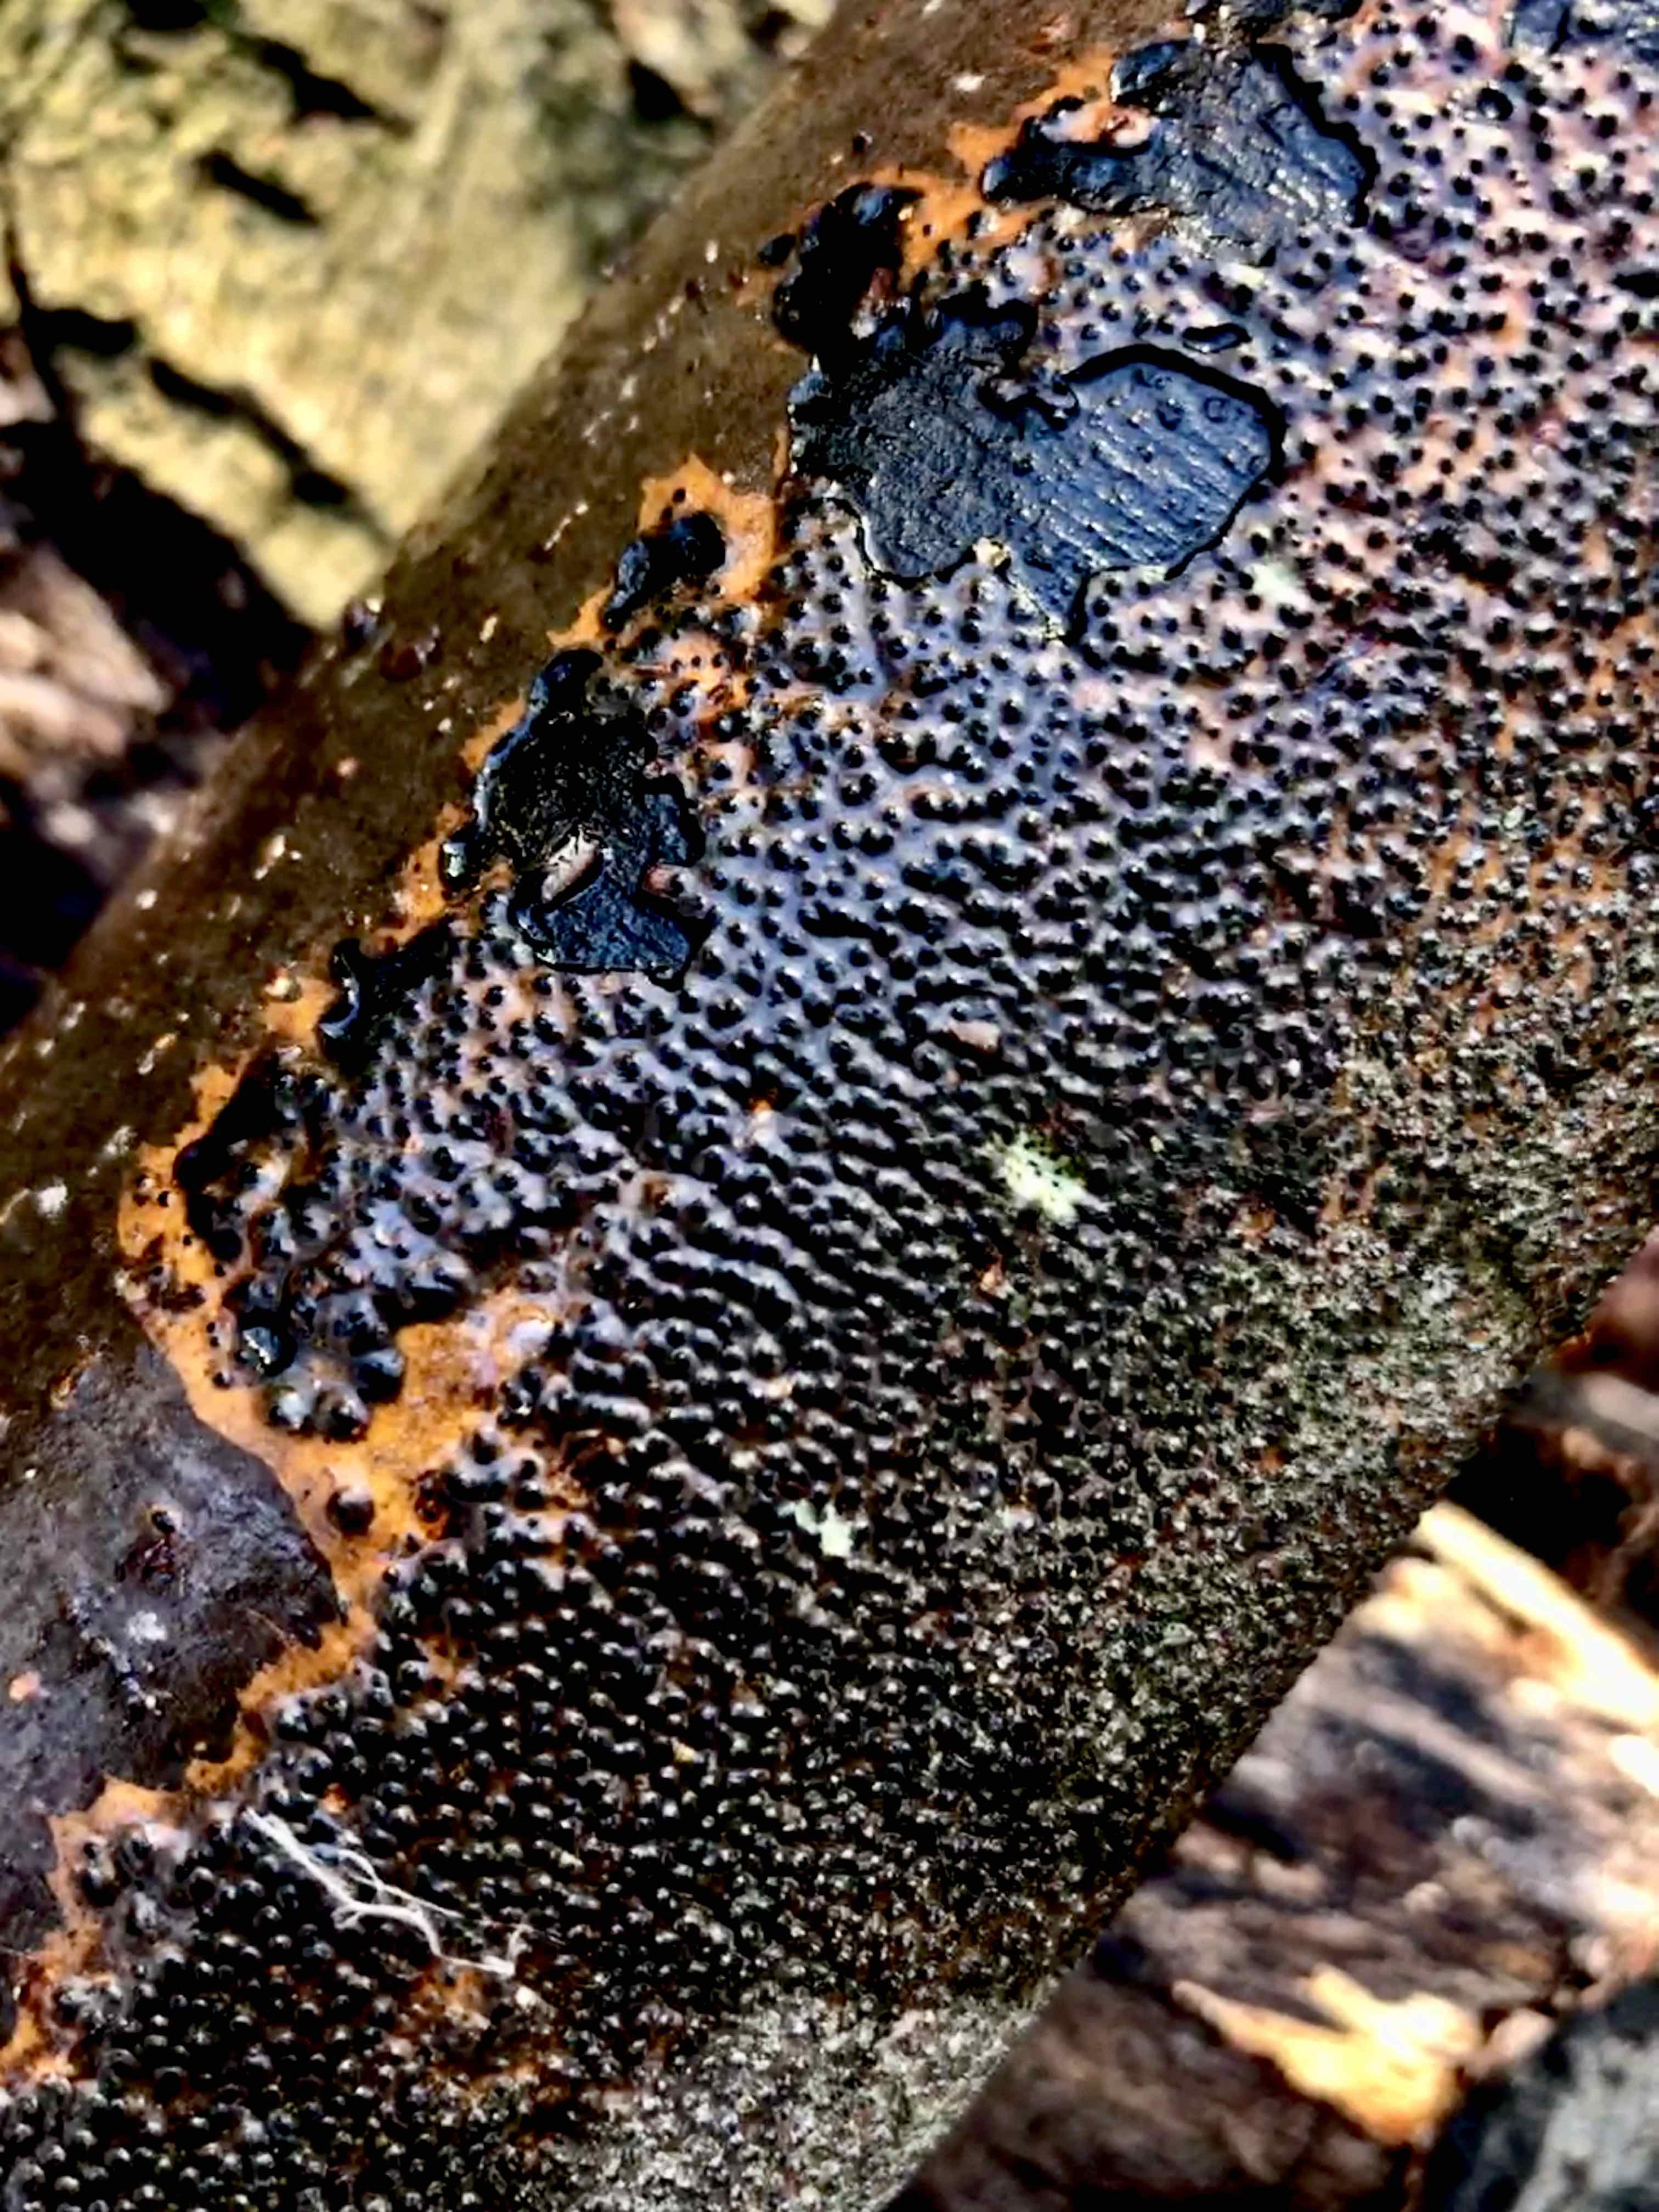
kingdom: Fungi
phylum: Ascomycota
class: Sordariomycetes
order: Xylariales
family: Diatrypaceae
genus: Eutypella
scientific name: Eutypella quaternata
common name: bøge-korsprik
